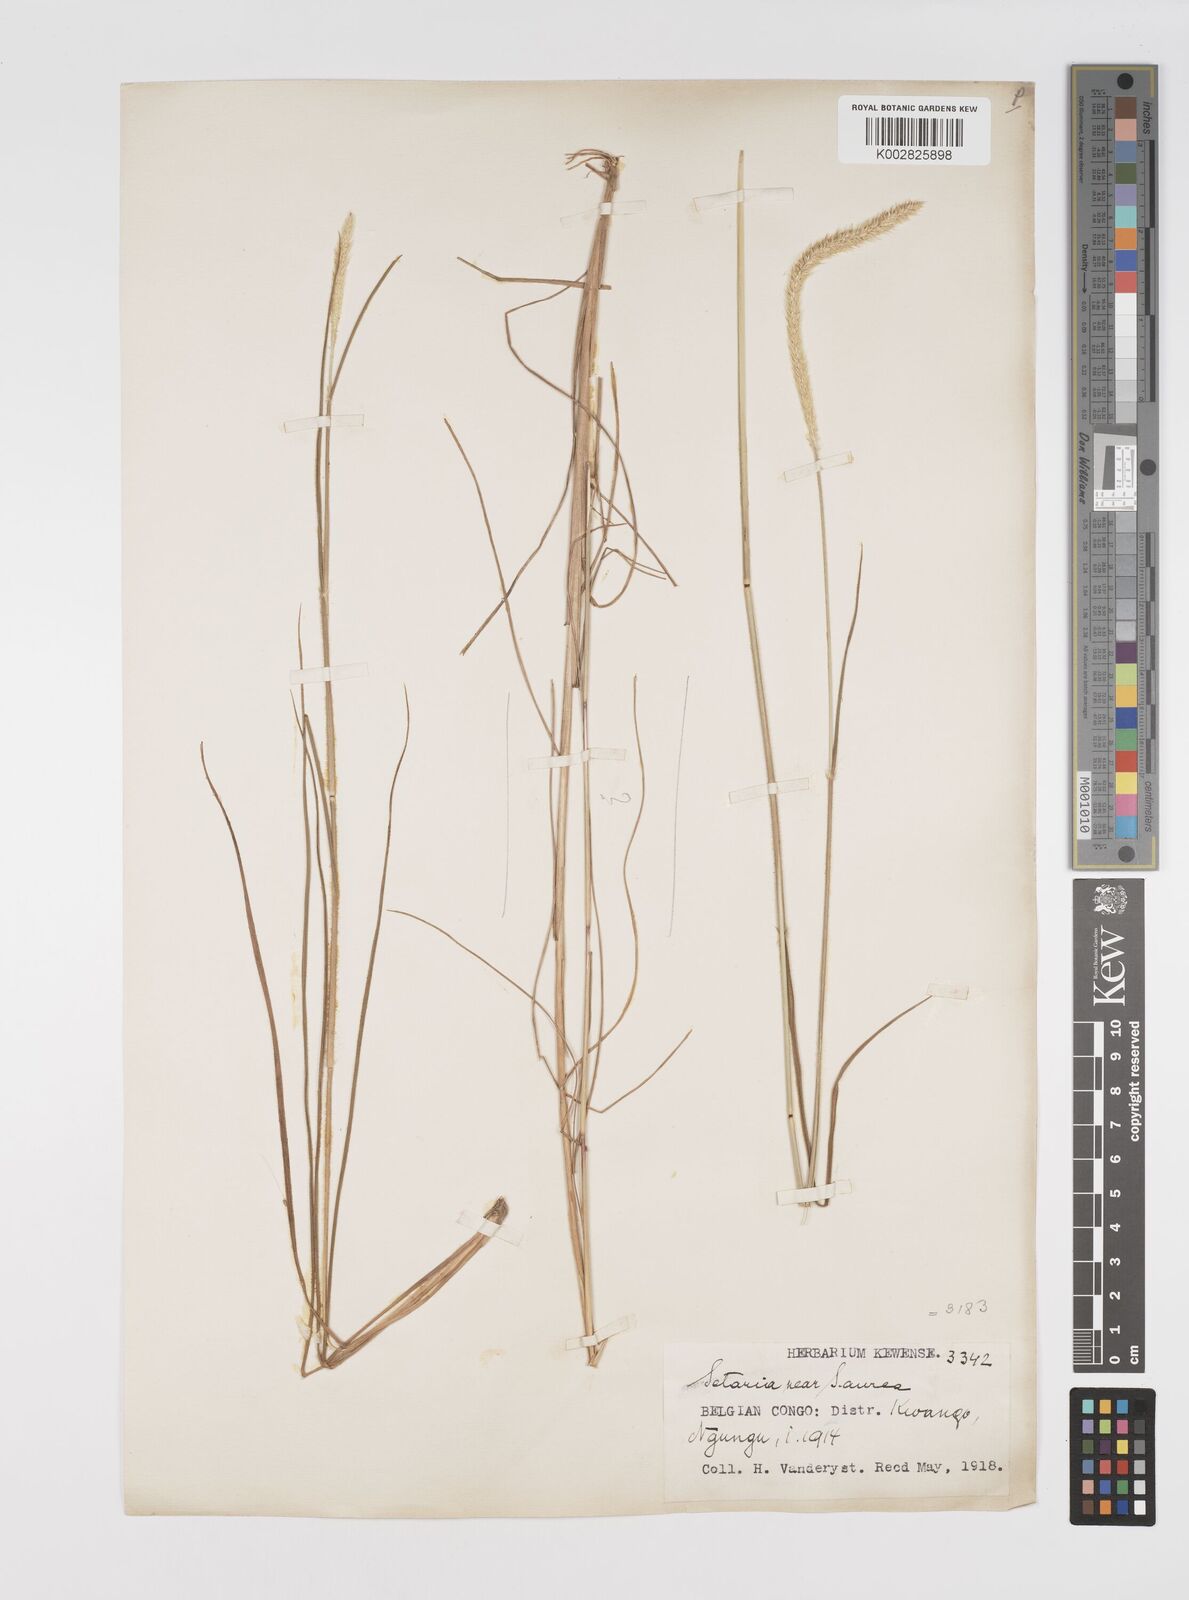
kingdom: Plantae
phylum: Tracheophyta
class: Liliopsida
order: Poales
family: Poaceae
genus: Setaria
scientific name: Setaria restioidea
